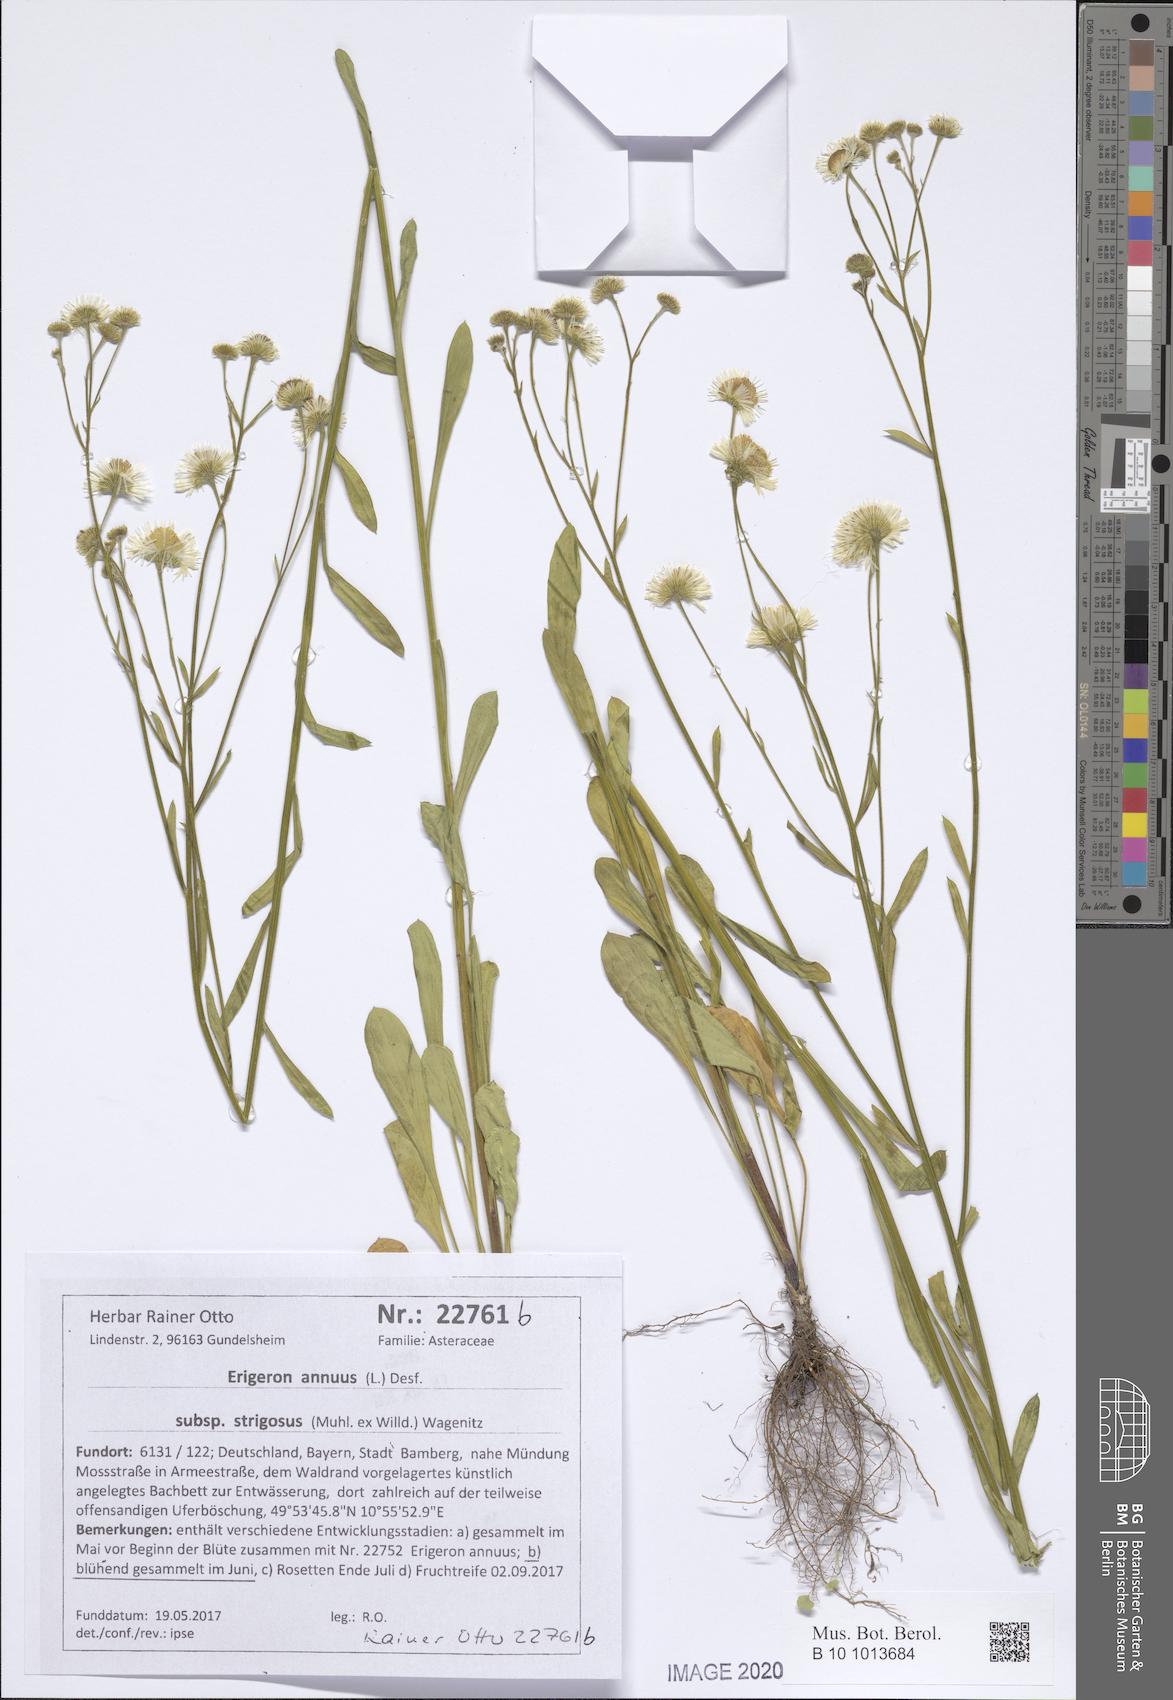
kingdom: Plantae
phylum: Tracheophyta
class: Magnoliopsida
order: Asterales
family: Asteraceae
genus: Erigeron
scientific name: Erigeron strigosus
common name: Common eastern fleabane
